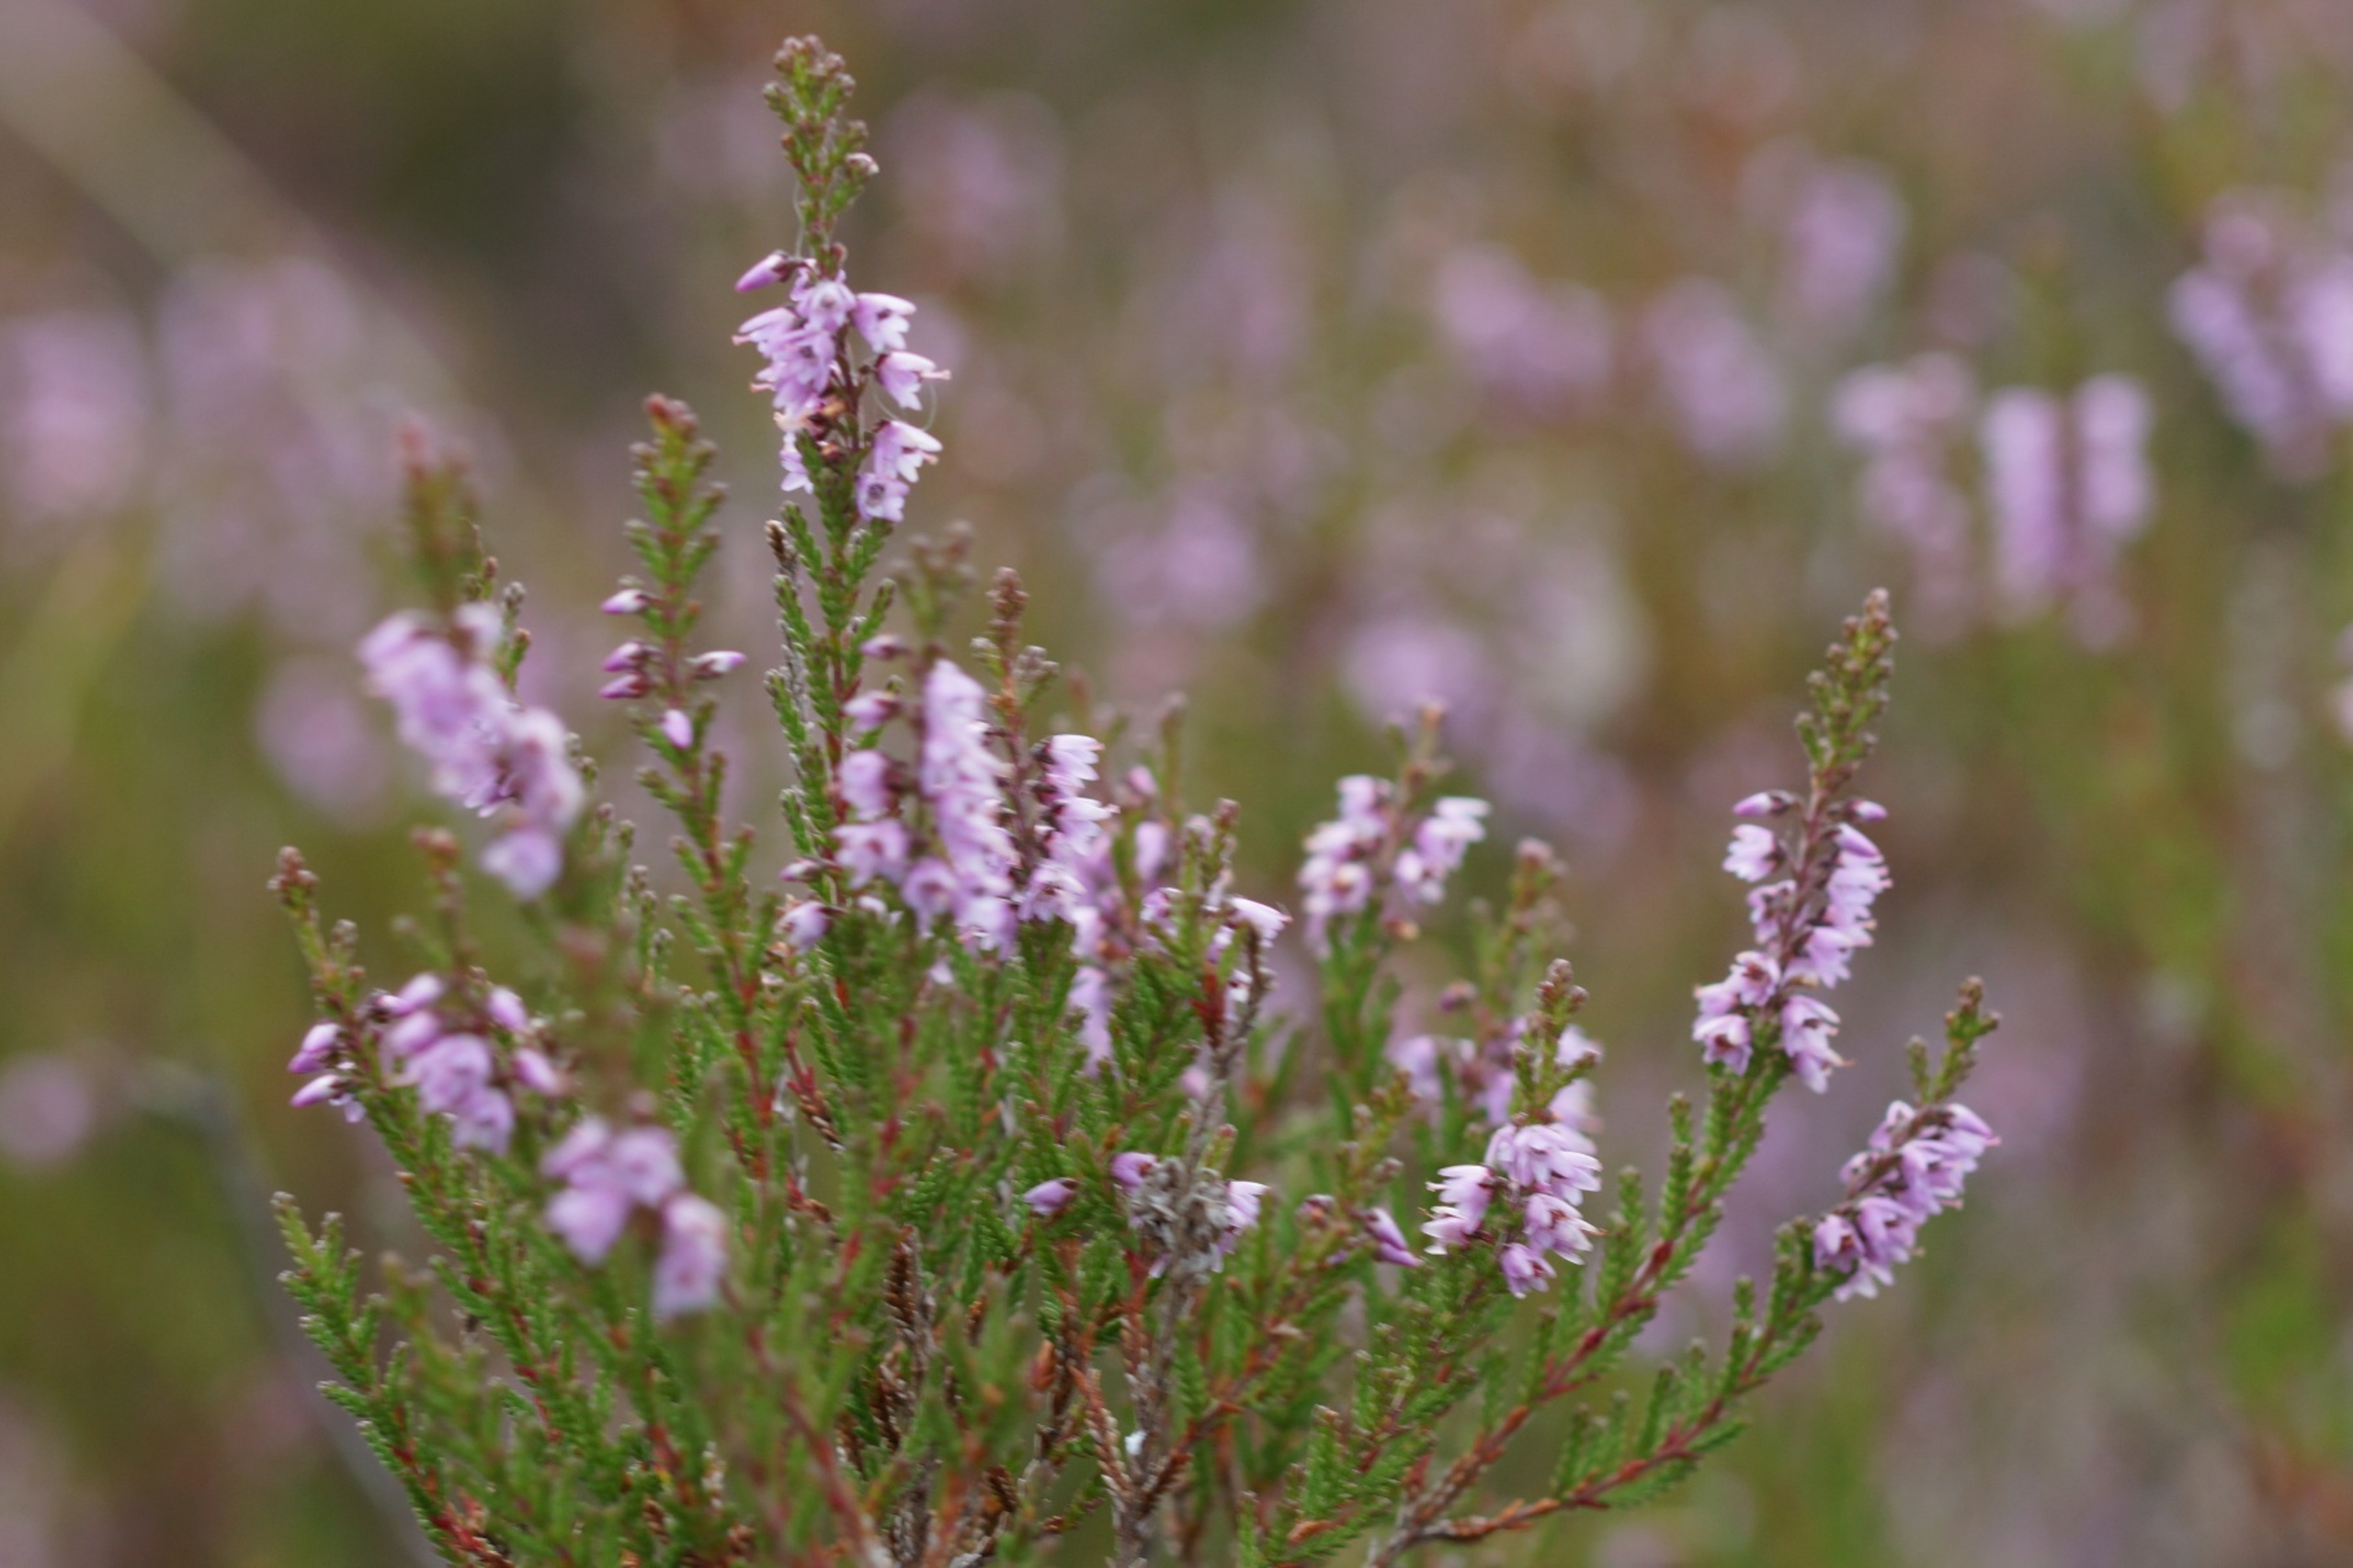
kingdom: Plantae
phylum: Tracheophyta
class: Magnoliopsida
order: Ericales
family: Ericaceae
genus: Calluna
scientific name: Calluna vulgaris
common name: Hedelyng
